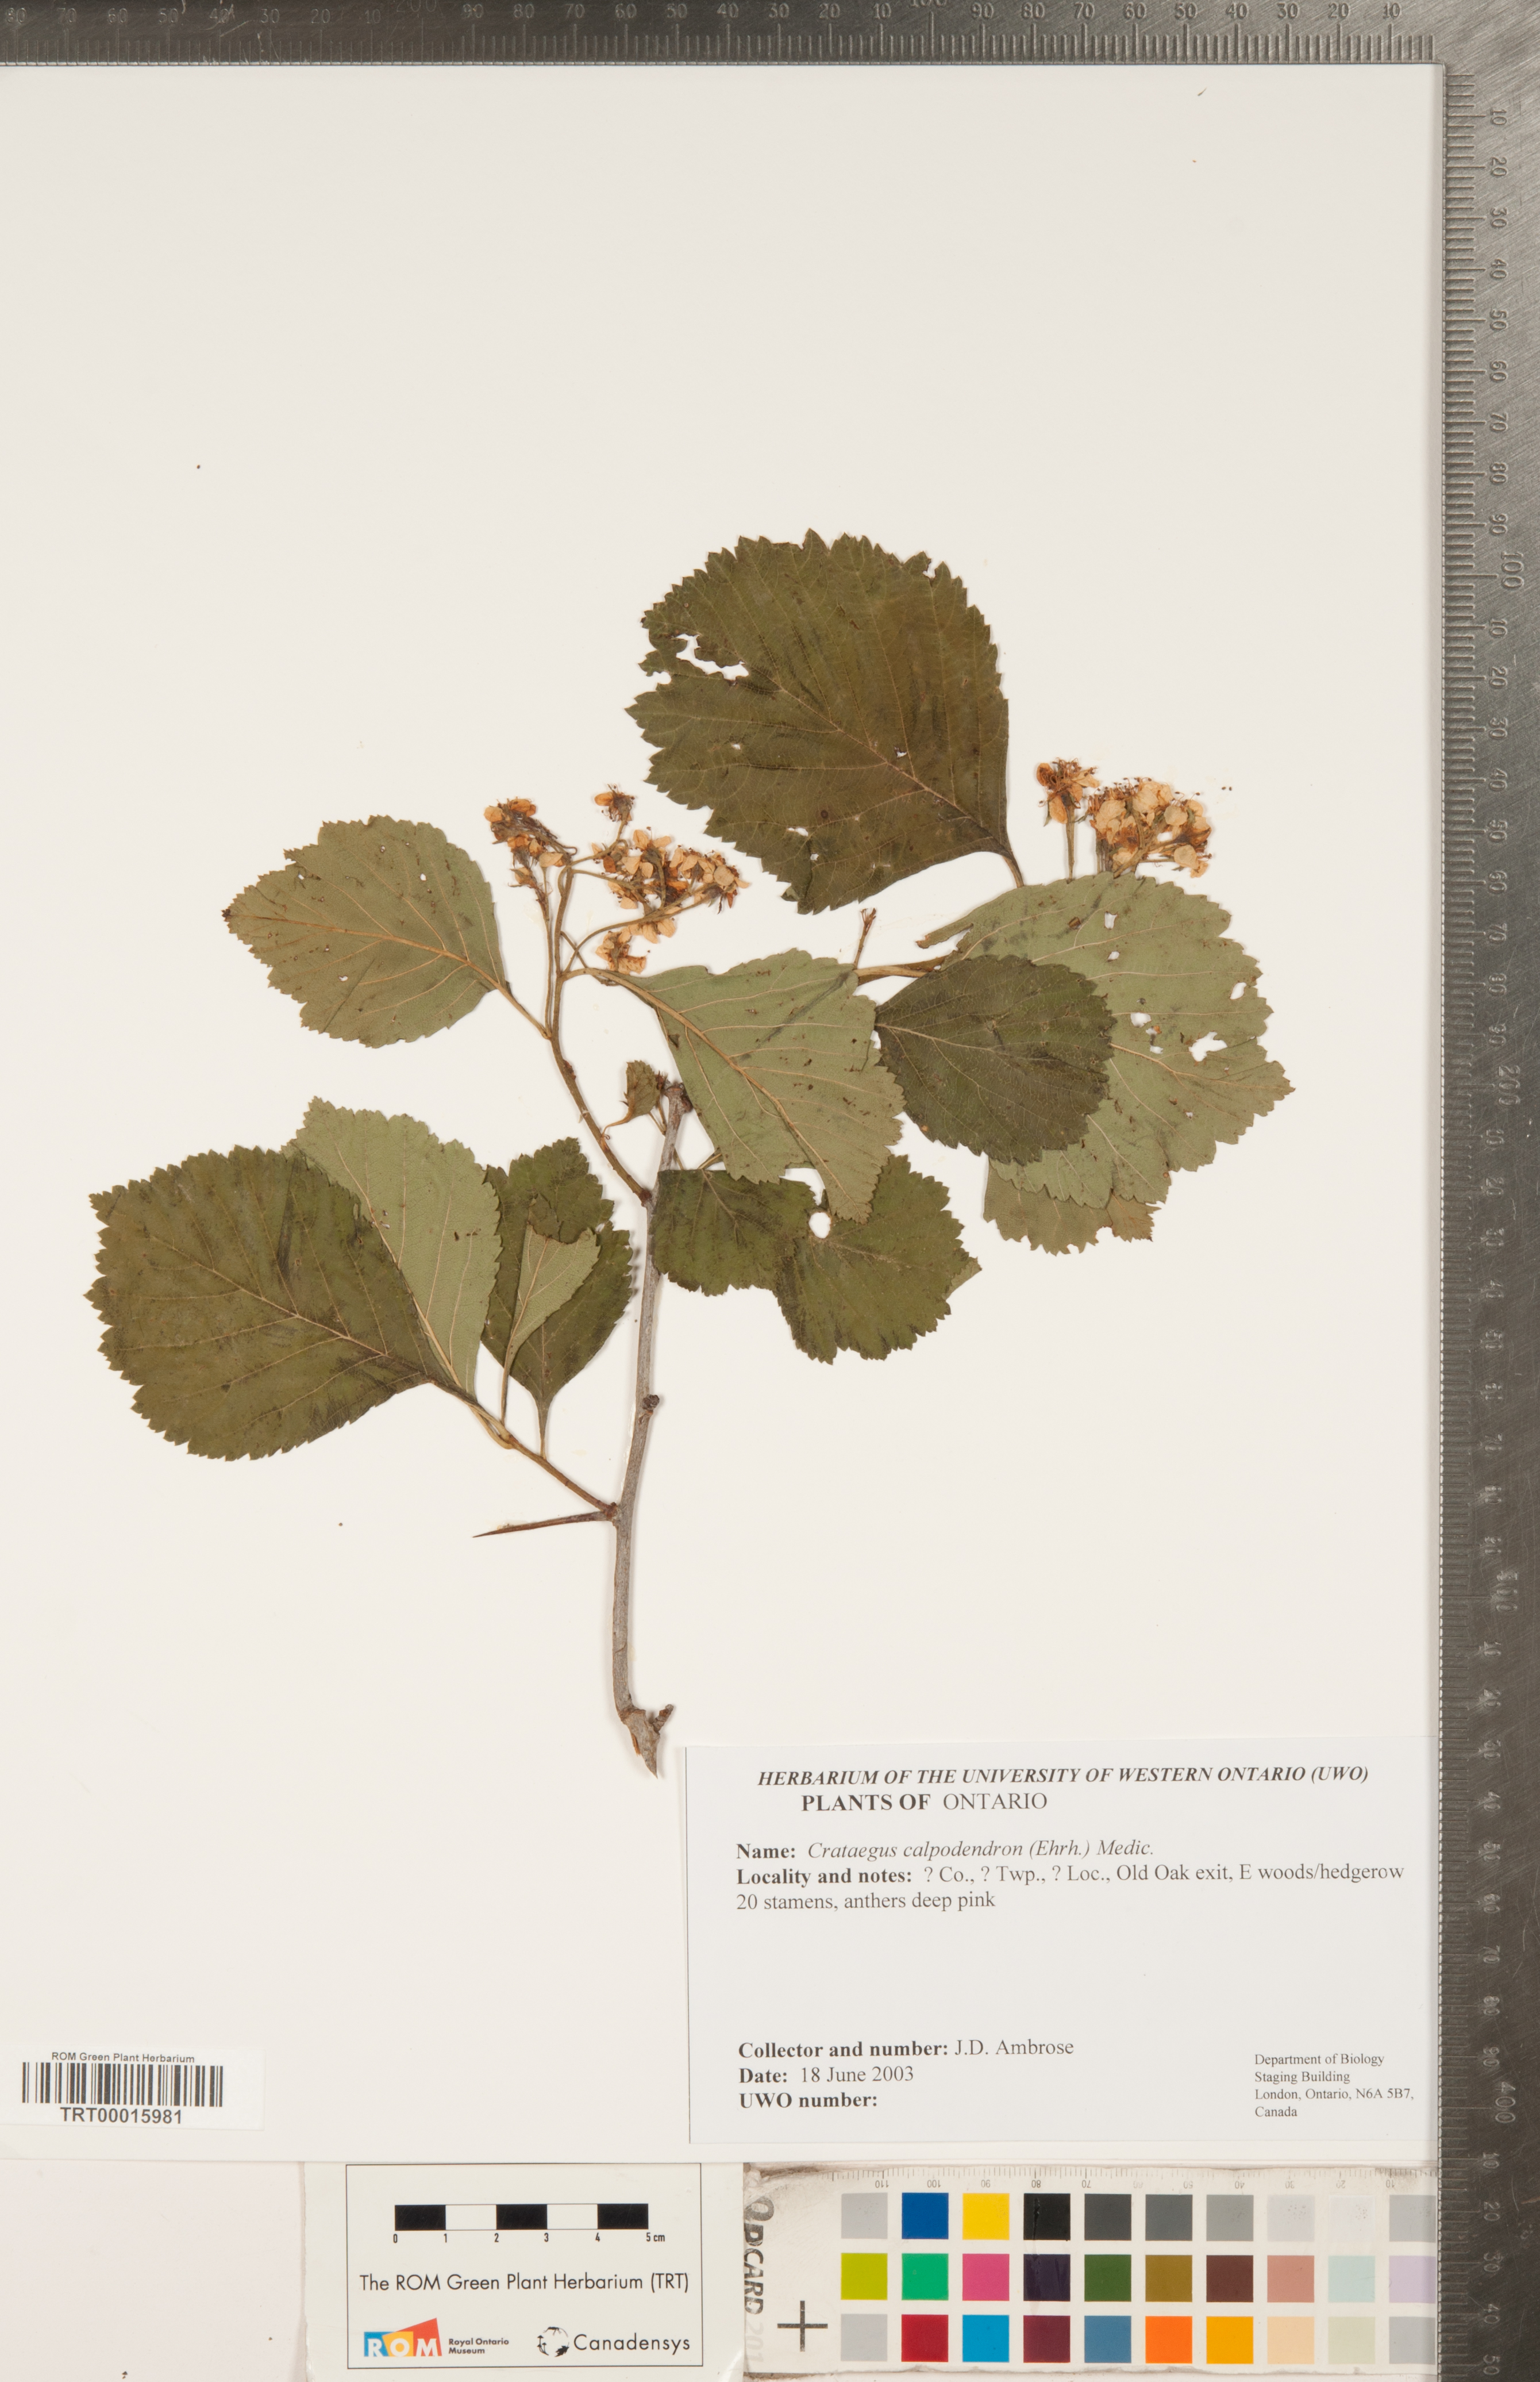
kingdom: Plantae
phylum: Tracheophyta
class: Magnoliopsida
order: Rosales
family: Rosaceae
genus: Crataegus
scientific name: Crataegus calpodendron
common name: Pear hawthorn
